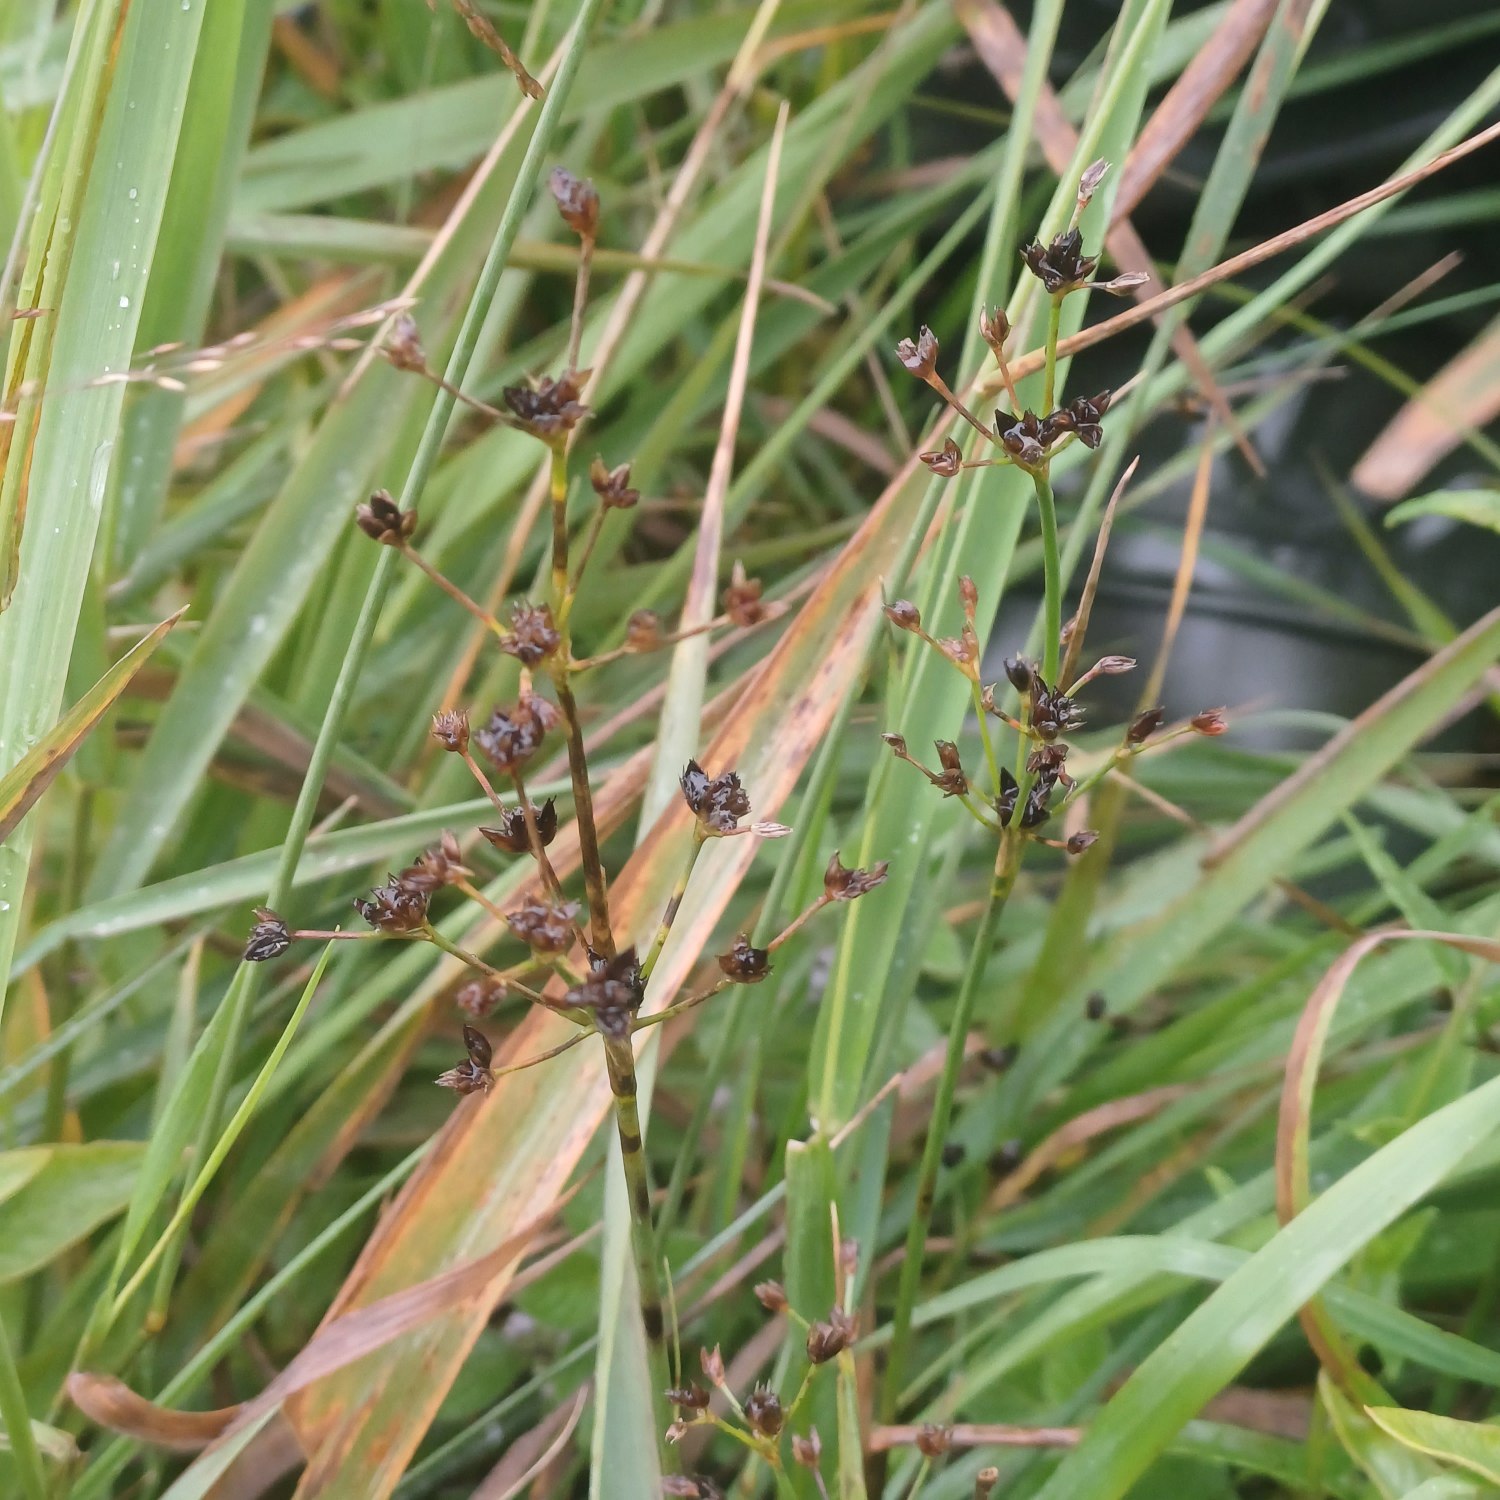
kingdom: Plantae
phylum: Tracheophyta
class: Liliopsida
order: Poales
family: Juncaceae
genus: Juncus
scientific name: Juncus articulatus
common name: Glanskapslet siv
